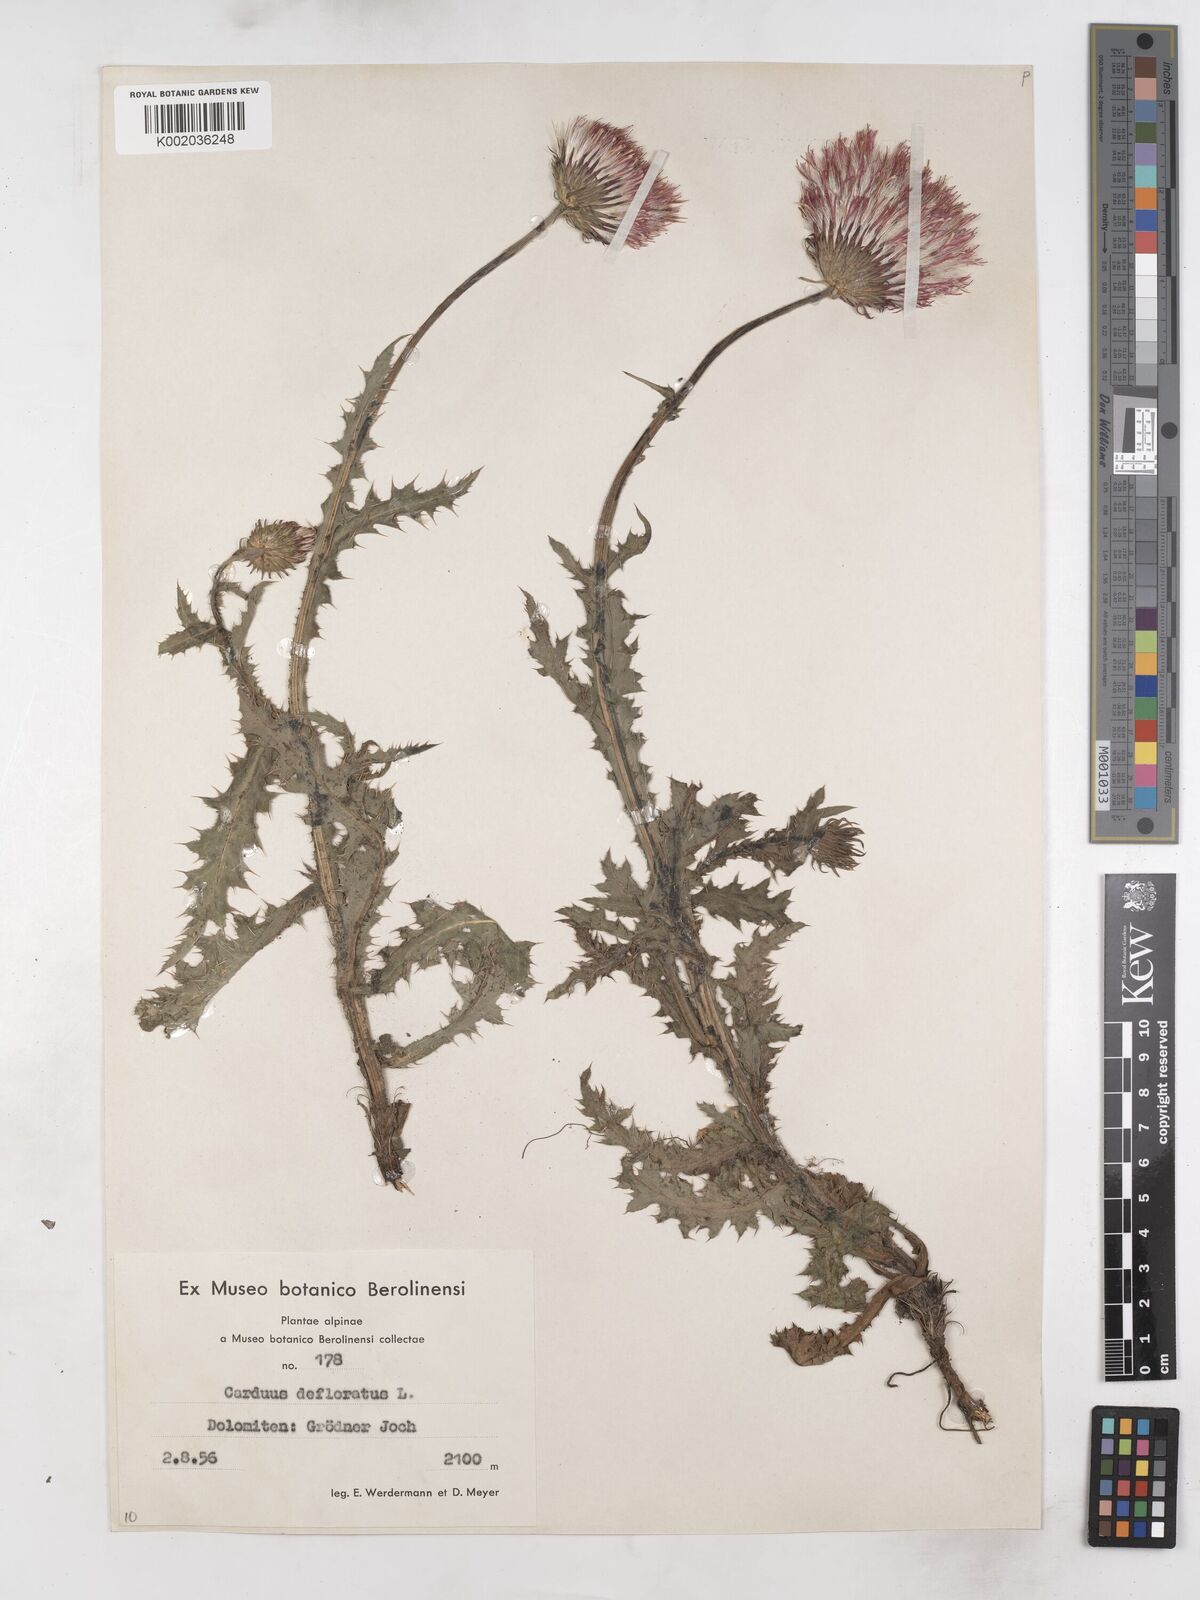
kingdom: Plantae
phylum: Tracheophyta
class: Magnoliopsida
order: Asterales
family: Asteraceae
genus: Carduus
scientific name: Carduus defloratus
